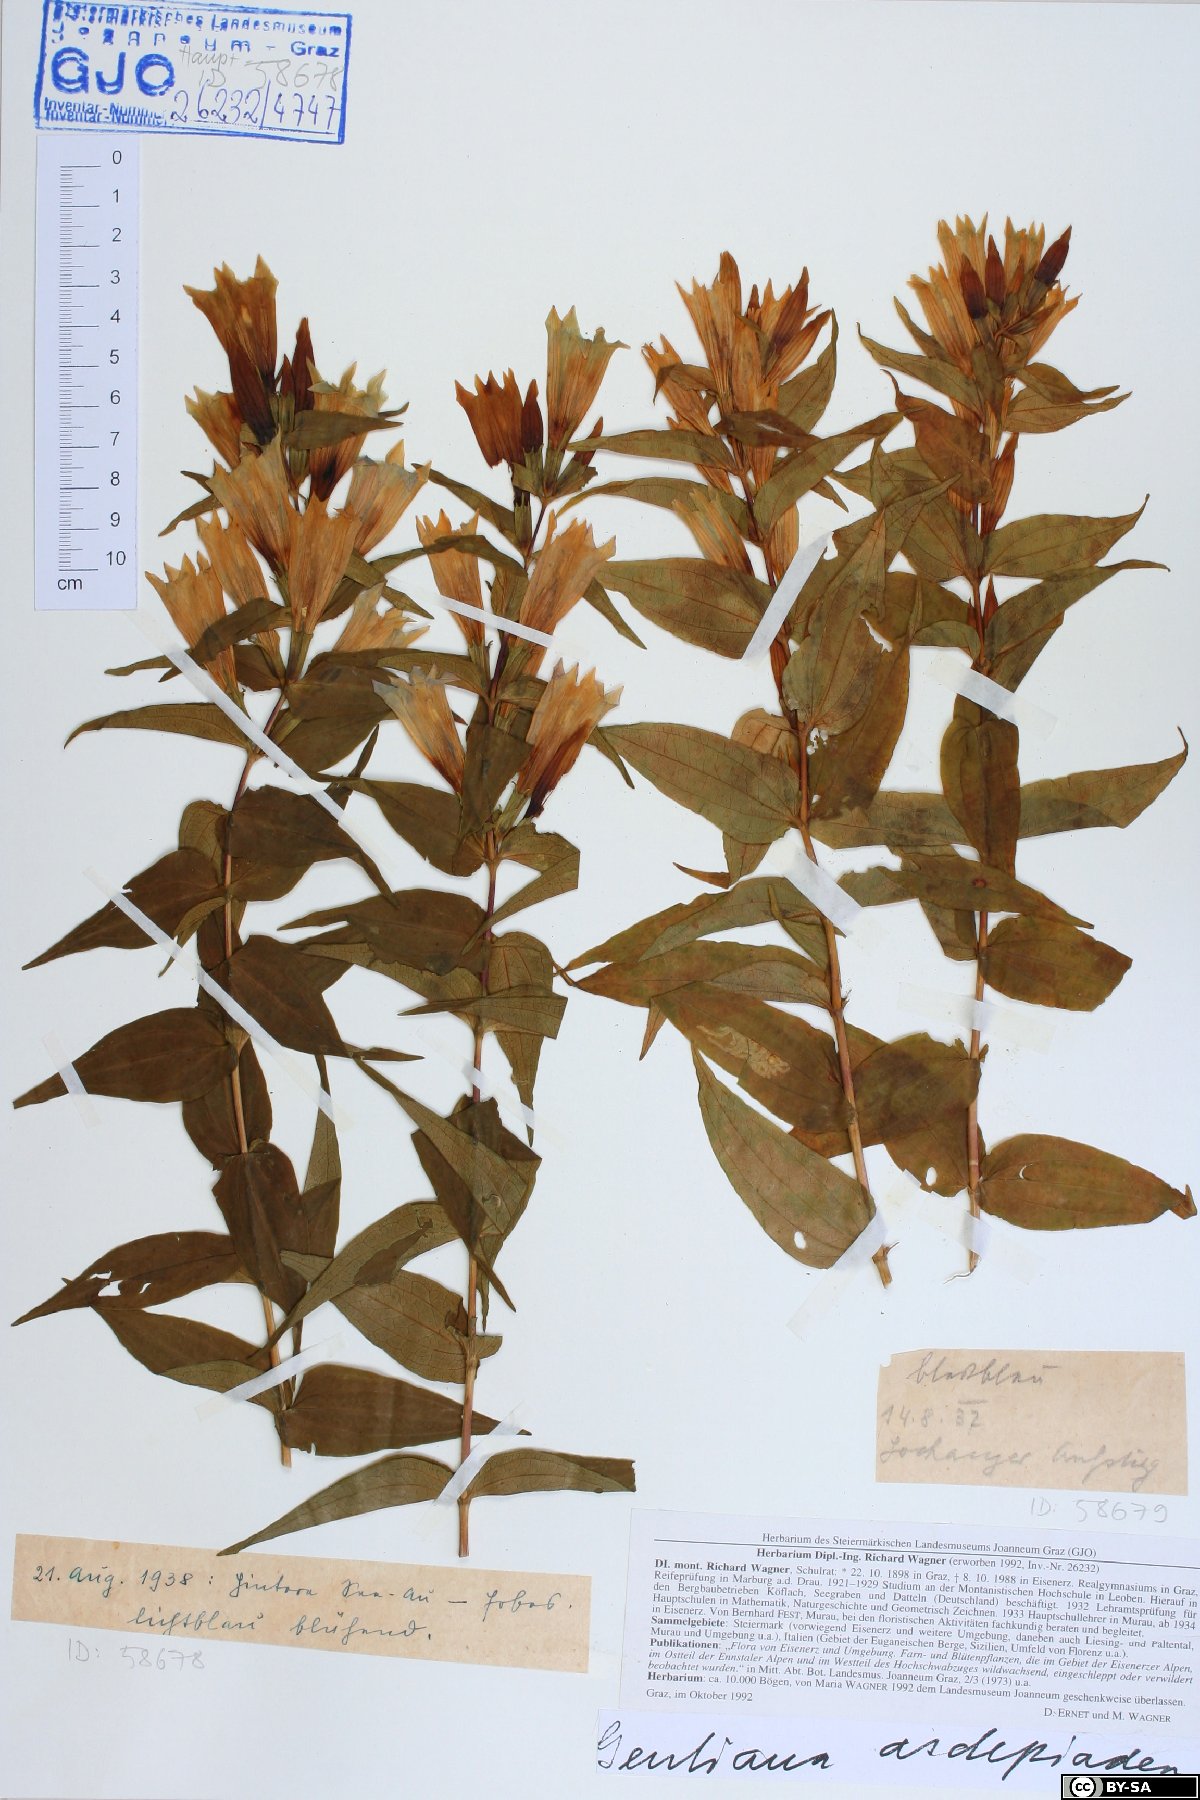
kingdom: Plantae
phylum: Tracheophyta
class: Magnoliopsida
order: Gentianales
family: Gentianaceae
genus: Gentiana
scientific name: Gentiana asclepiadea
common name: Willow gentian
